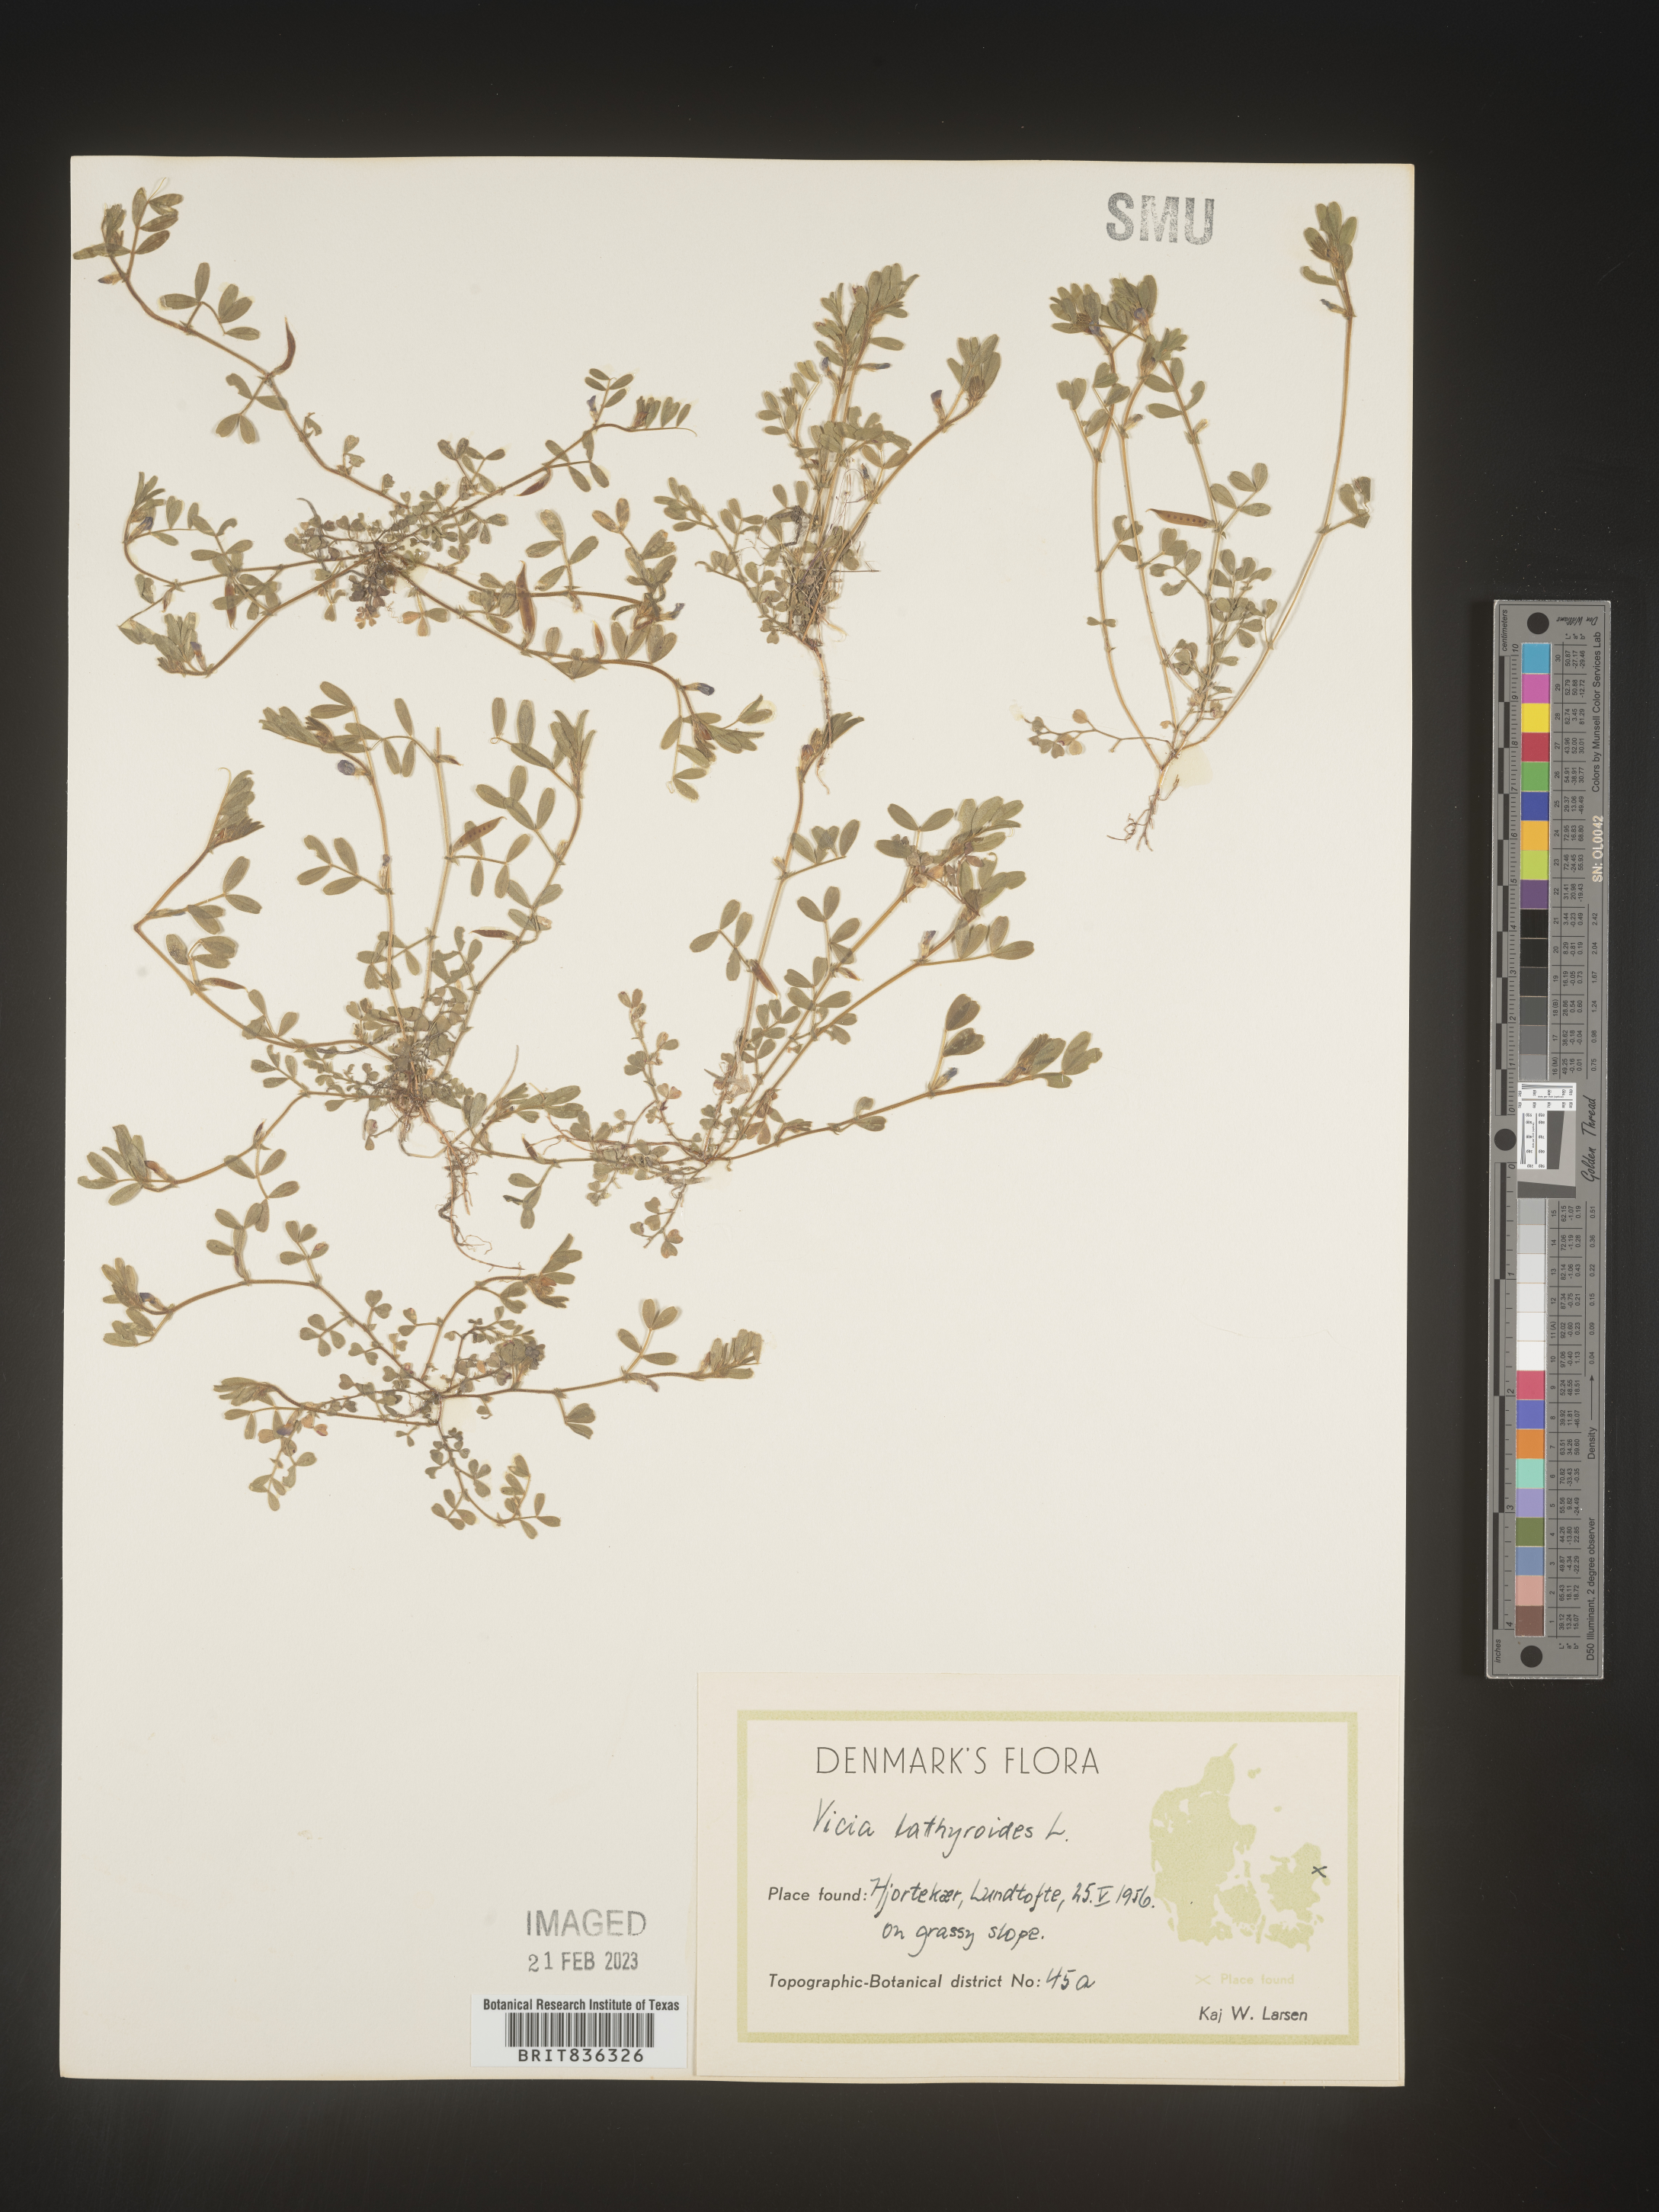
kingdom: Plantae
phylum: Tracheophyta
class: Magnoliopsida
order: Fabales
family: Fabaceae
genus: Vicia
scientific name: Vicia
